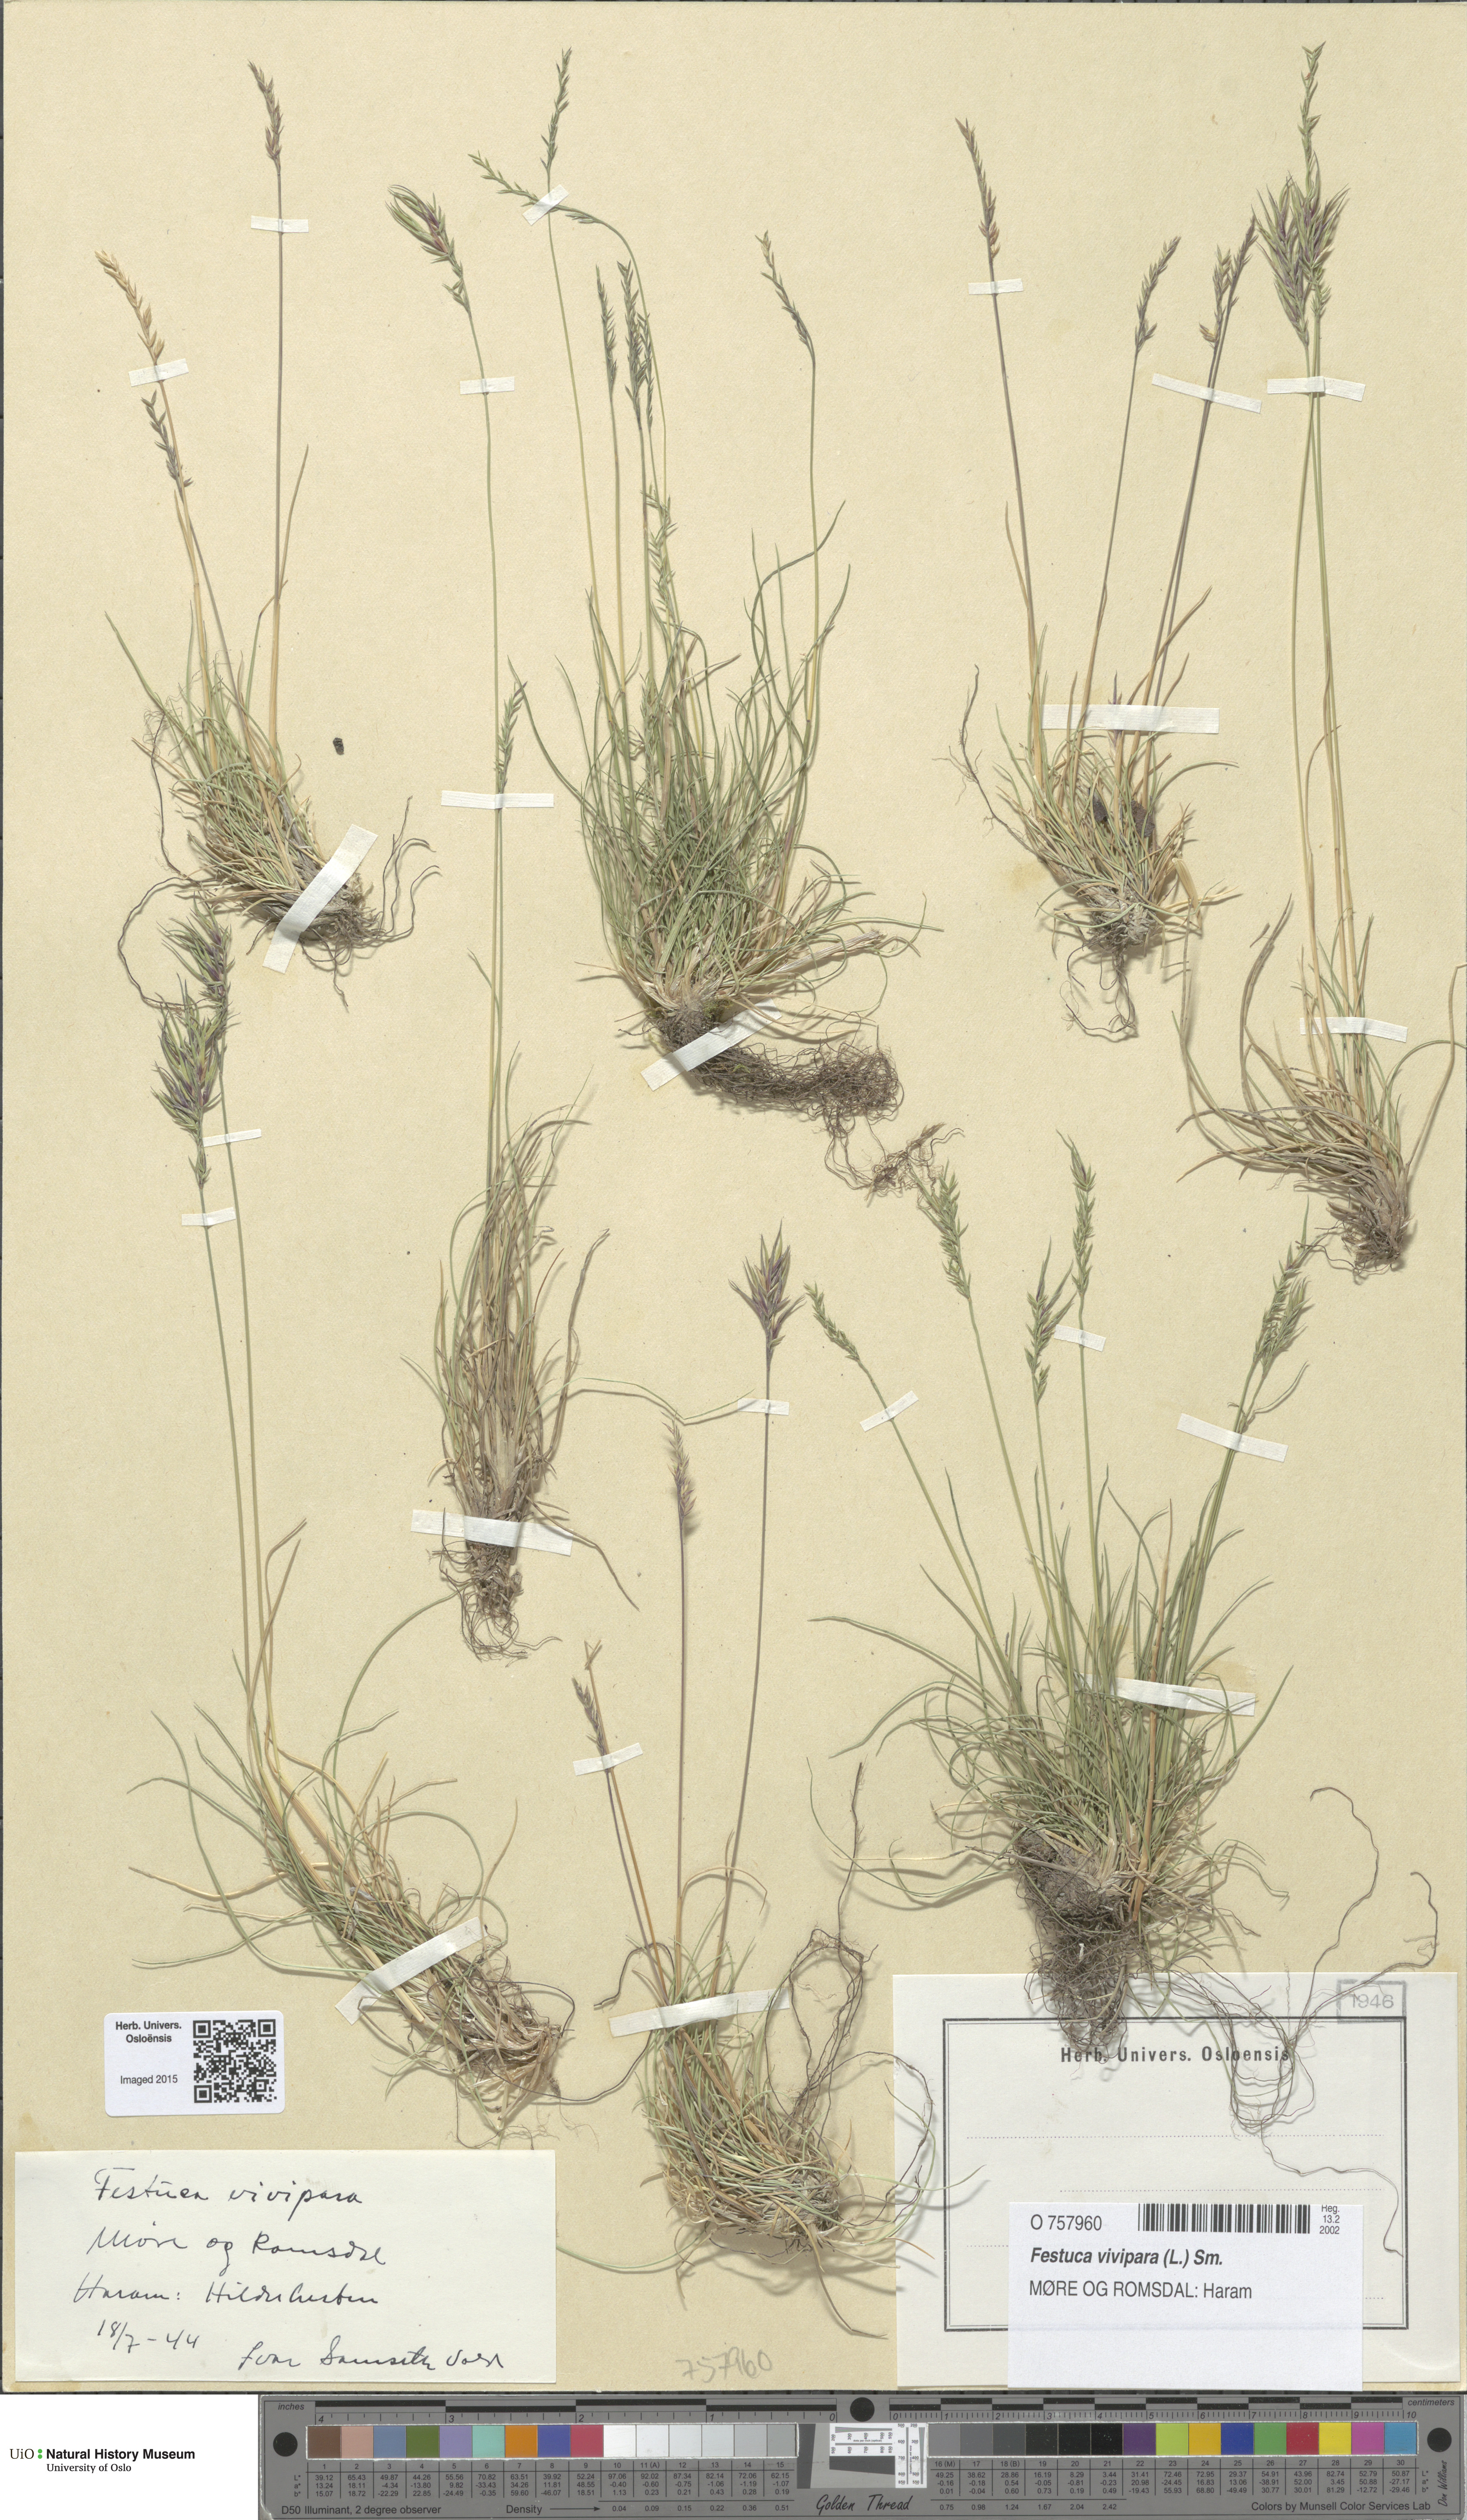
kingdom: Plantae
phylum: Tracheophyta
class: Liliopsida
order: Poales
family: Poaceae
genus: Festuca
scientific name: Festuca vivipara
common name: Viviparous sheep's-fescue
